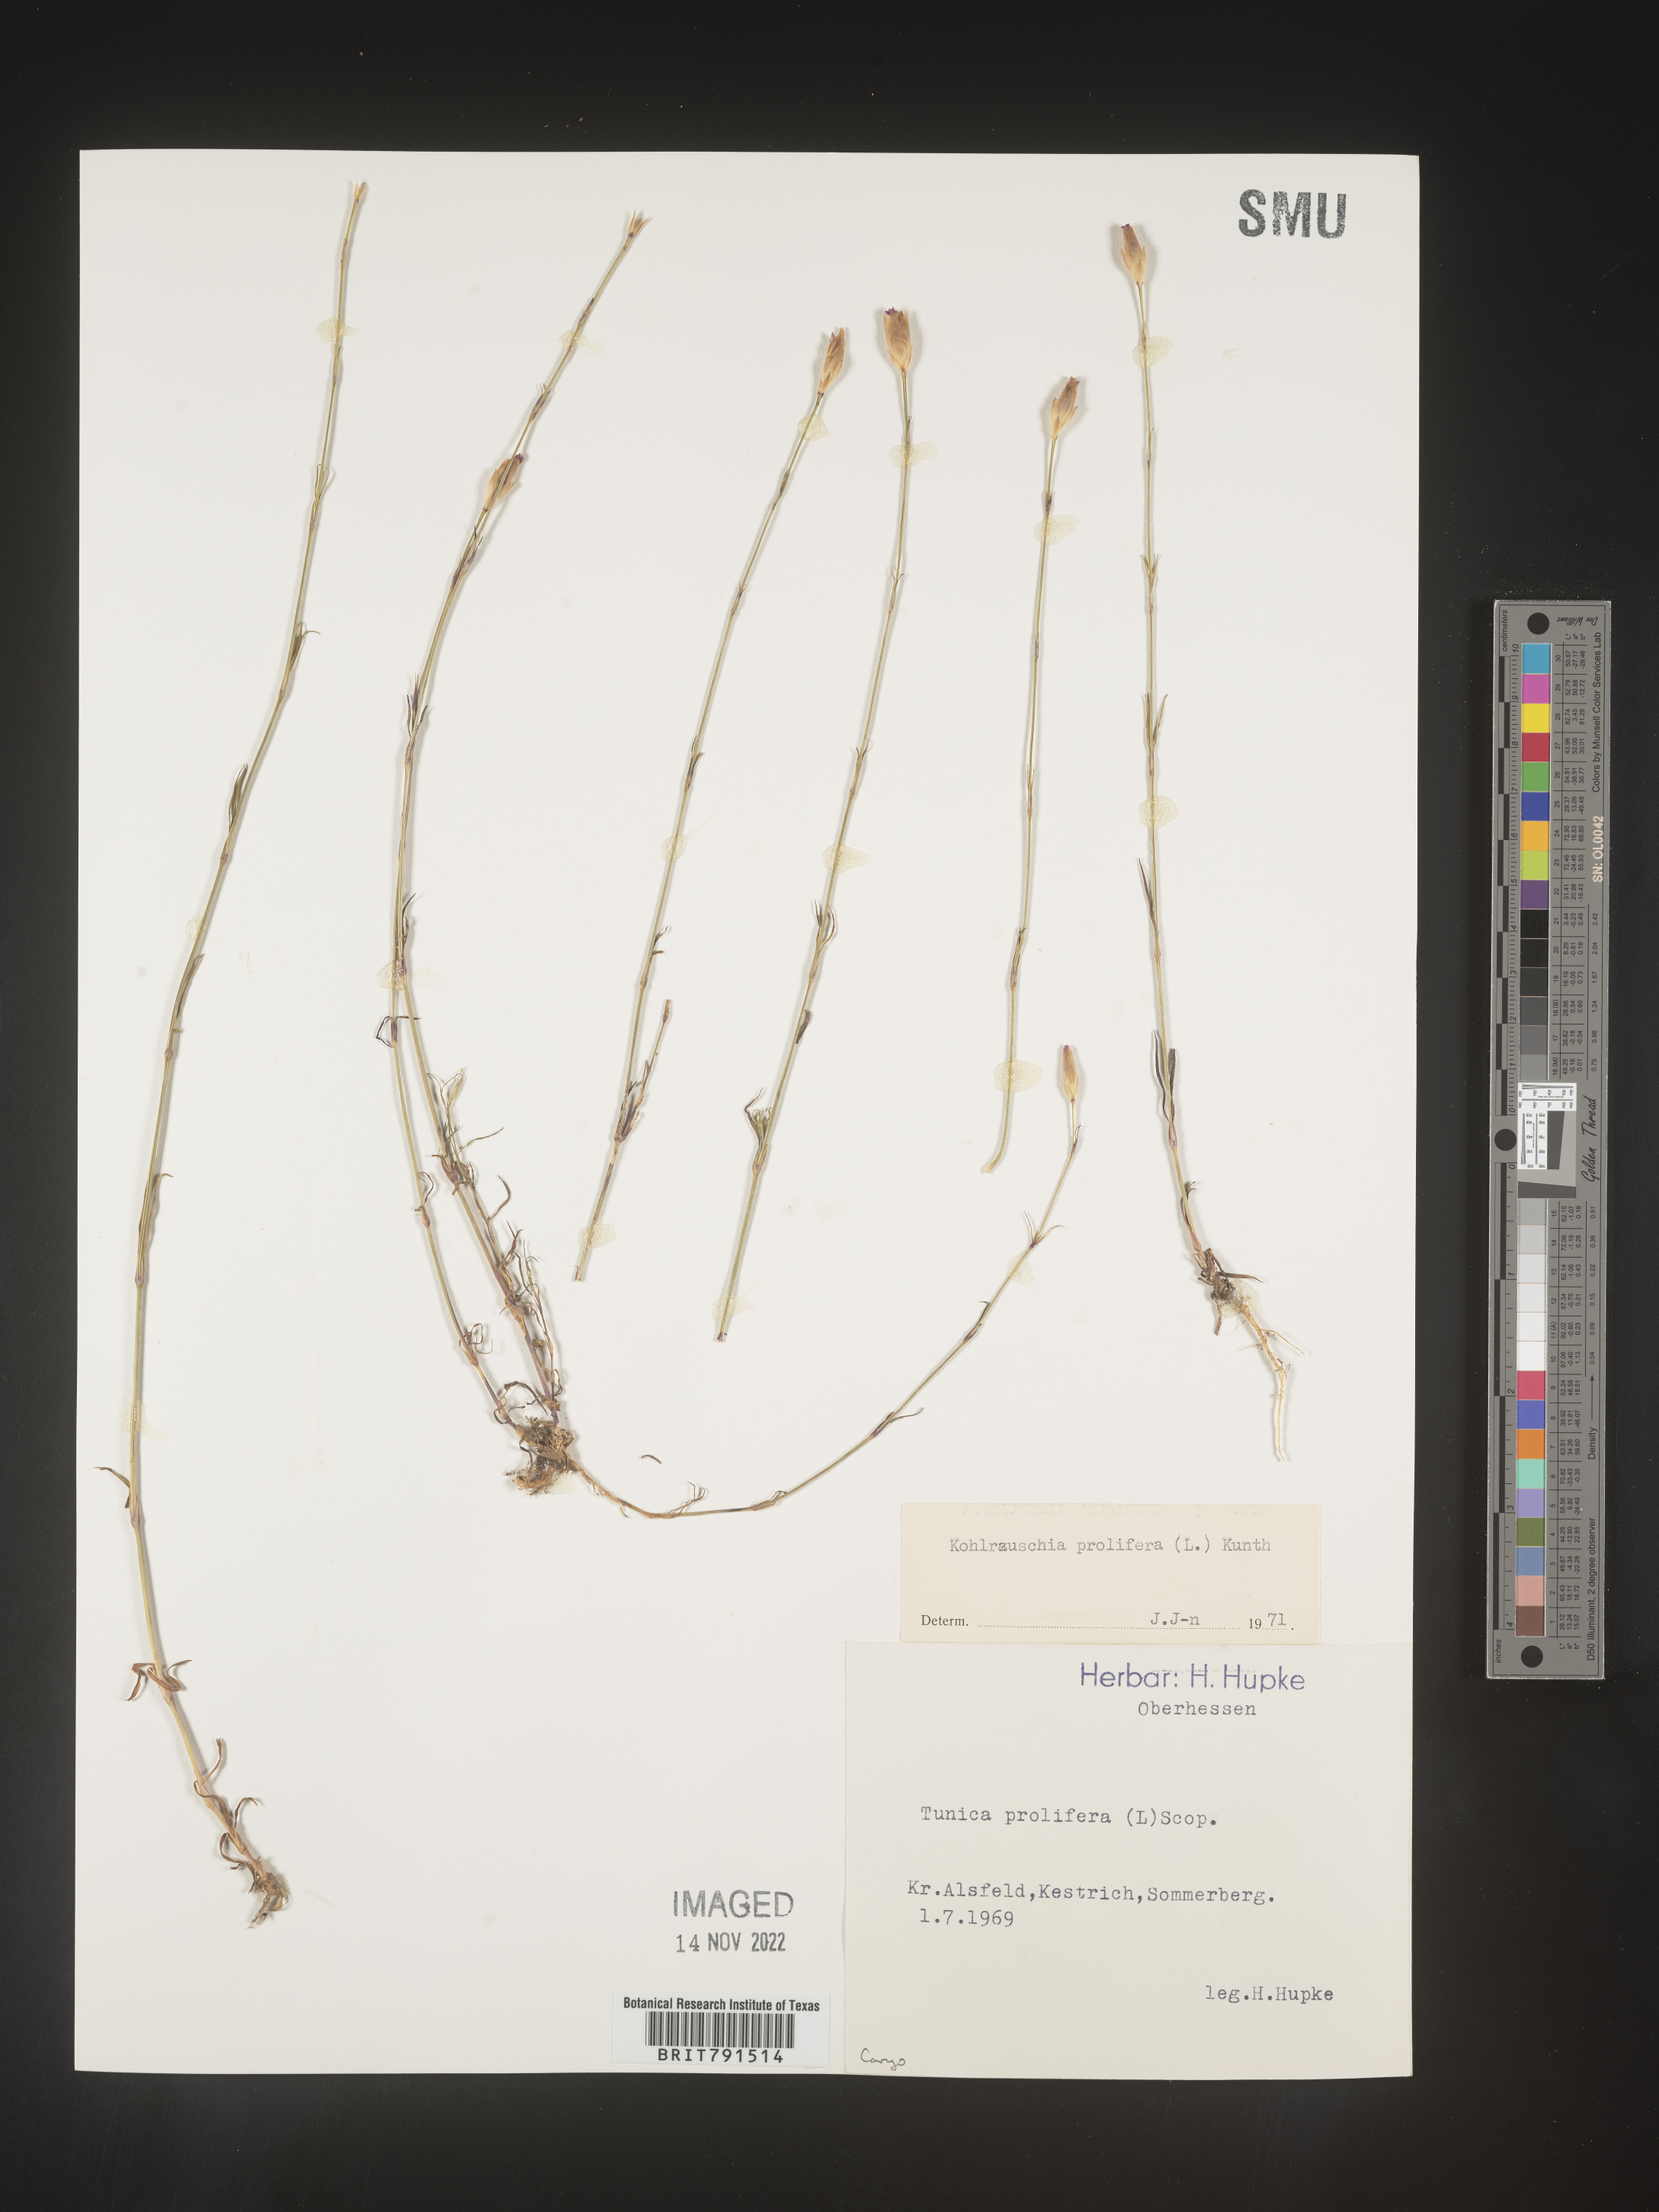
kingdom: Plantae
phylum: Tracheophyta
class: Magnoliopsida
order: Caryophyllales
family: Caryophyllaceae
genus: Petrorhagia
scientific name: Petrorhagia
